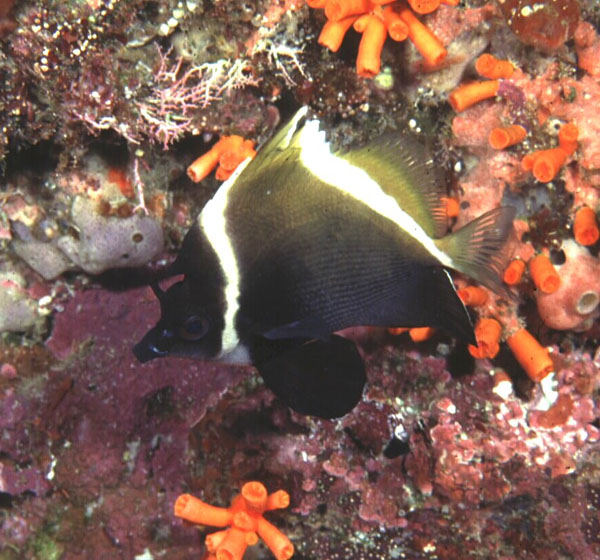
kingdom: Animalia
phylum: Chordata
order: Perciformes
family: Chaetodontidae
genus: Heniochus
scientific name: Heniochus varius
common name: Horned bannerfish
